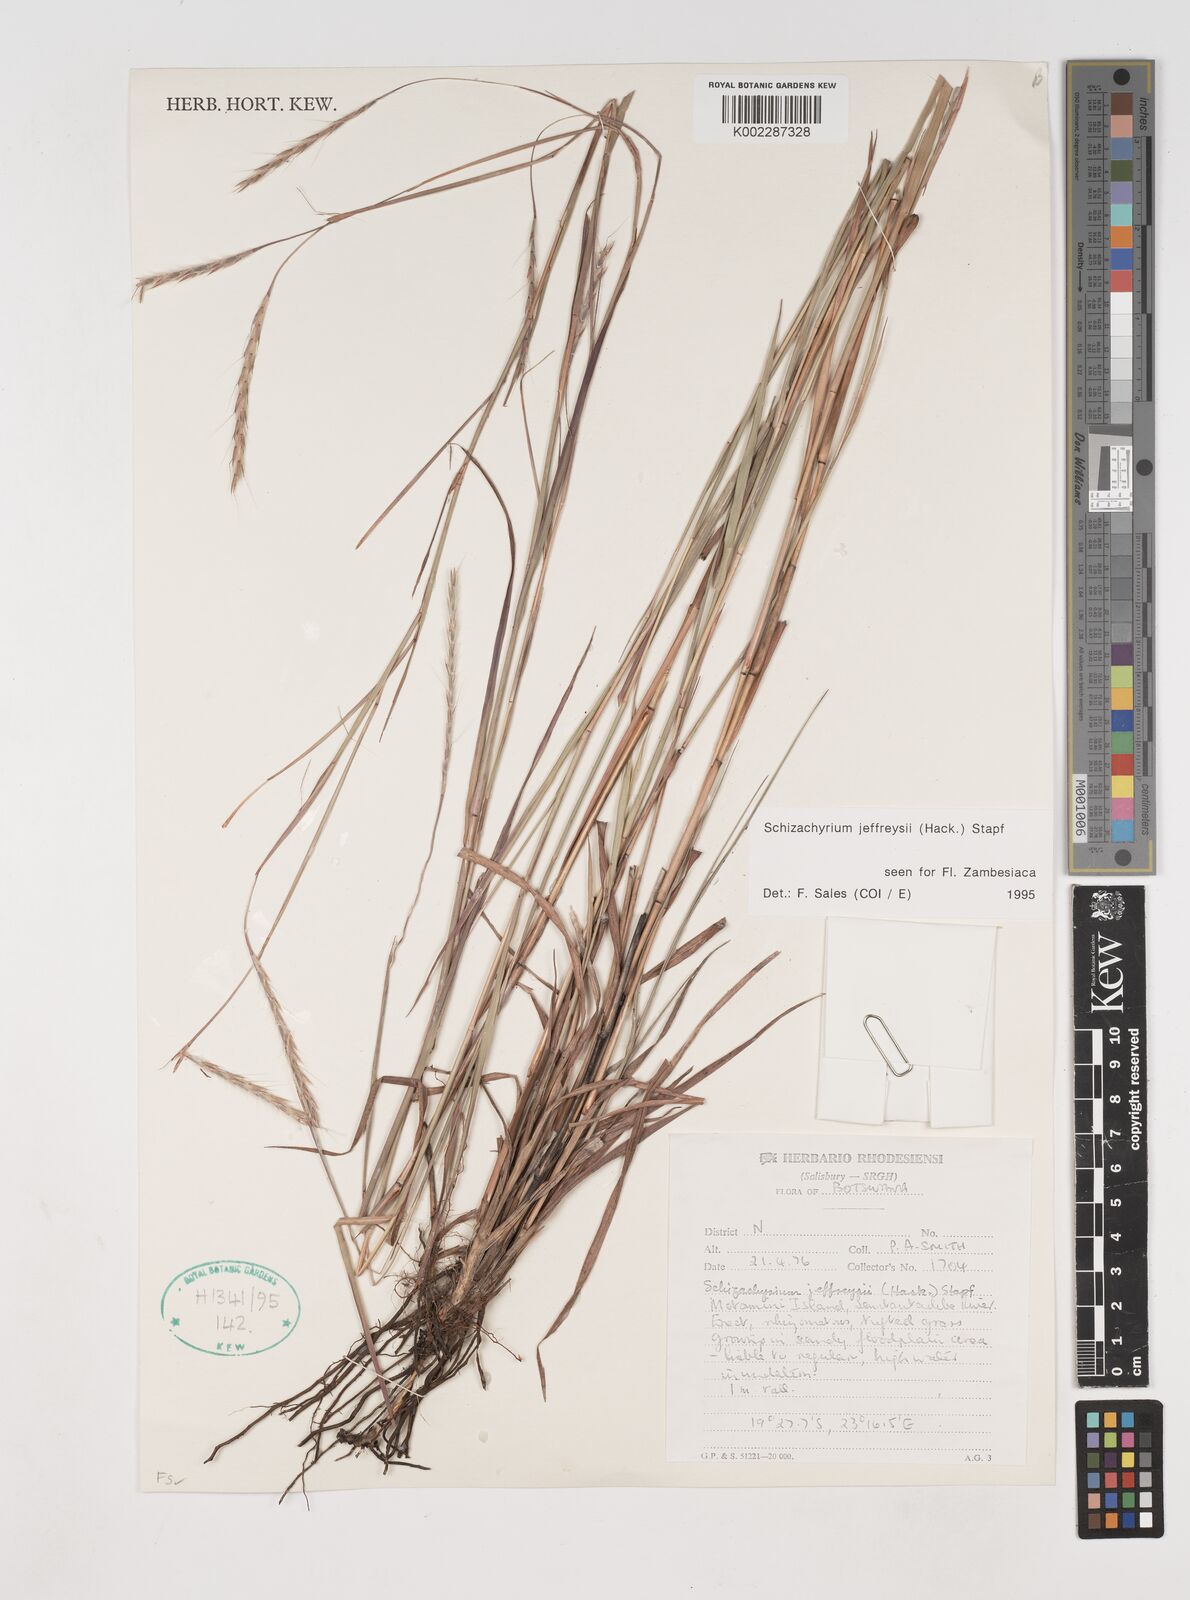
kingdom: Plantae
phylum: Tracheophyta
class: Liliopsida
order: Poales
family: Poaceae
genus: Schizachyrium
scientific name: Schizachyrium jeffreysii
